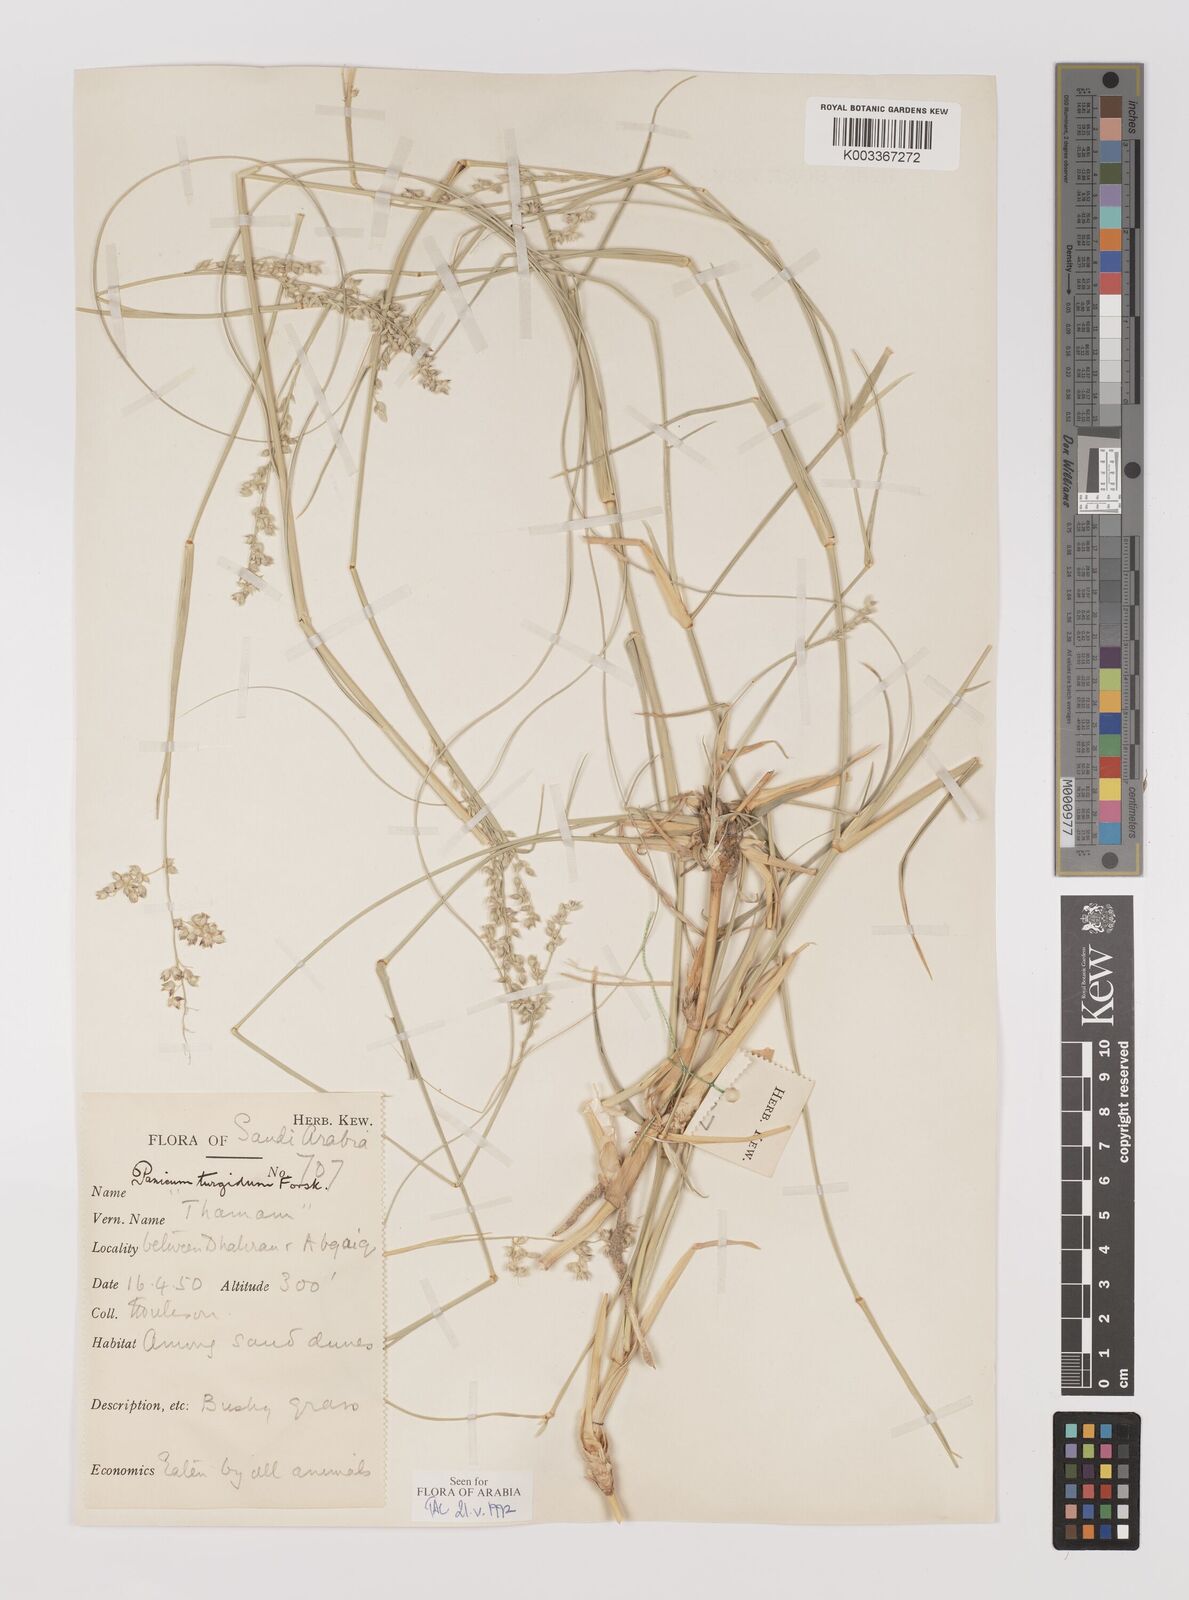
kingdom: Plantae
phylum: Tracheophyta
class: Liliopsida
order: Poales
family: Poaceae
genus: Panicum
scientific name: Panicum turgidum
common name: Desert grass
